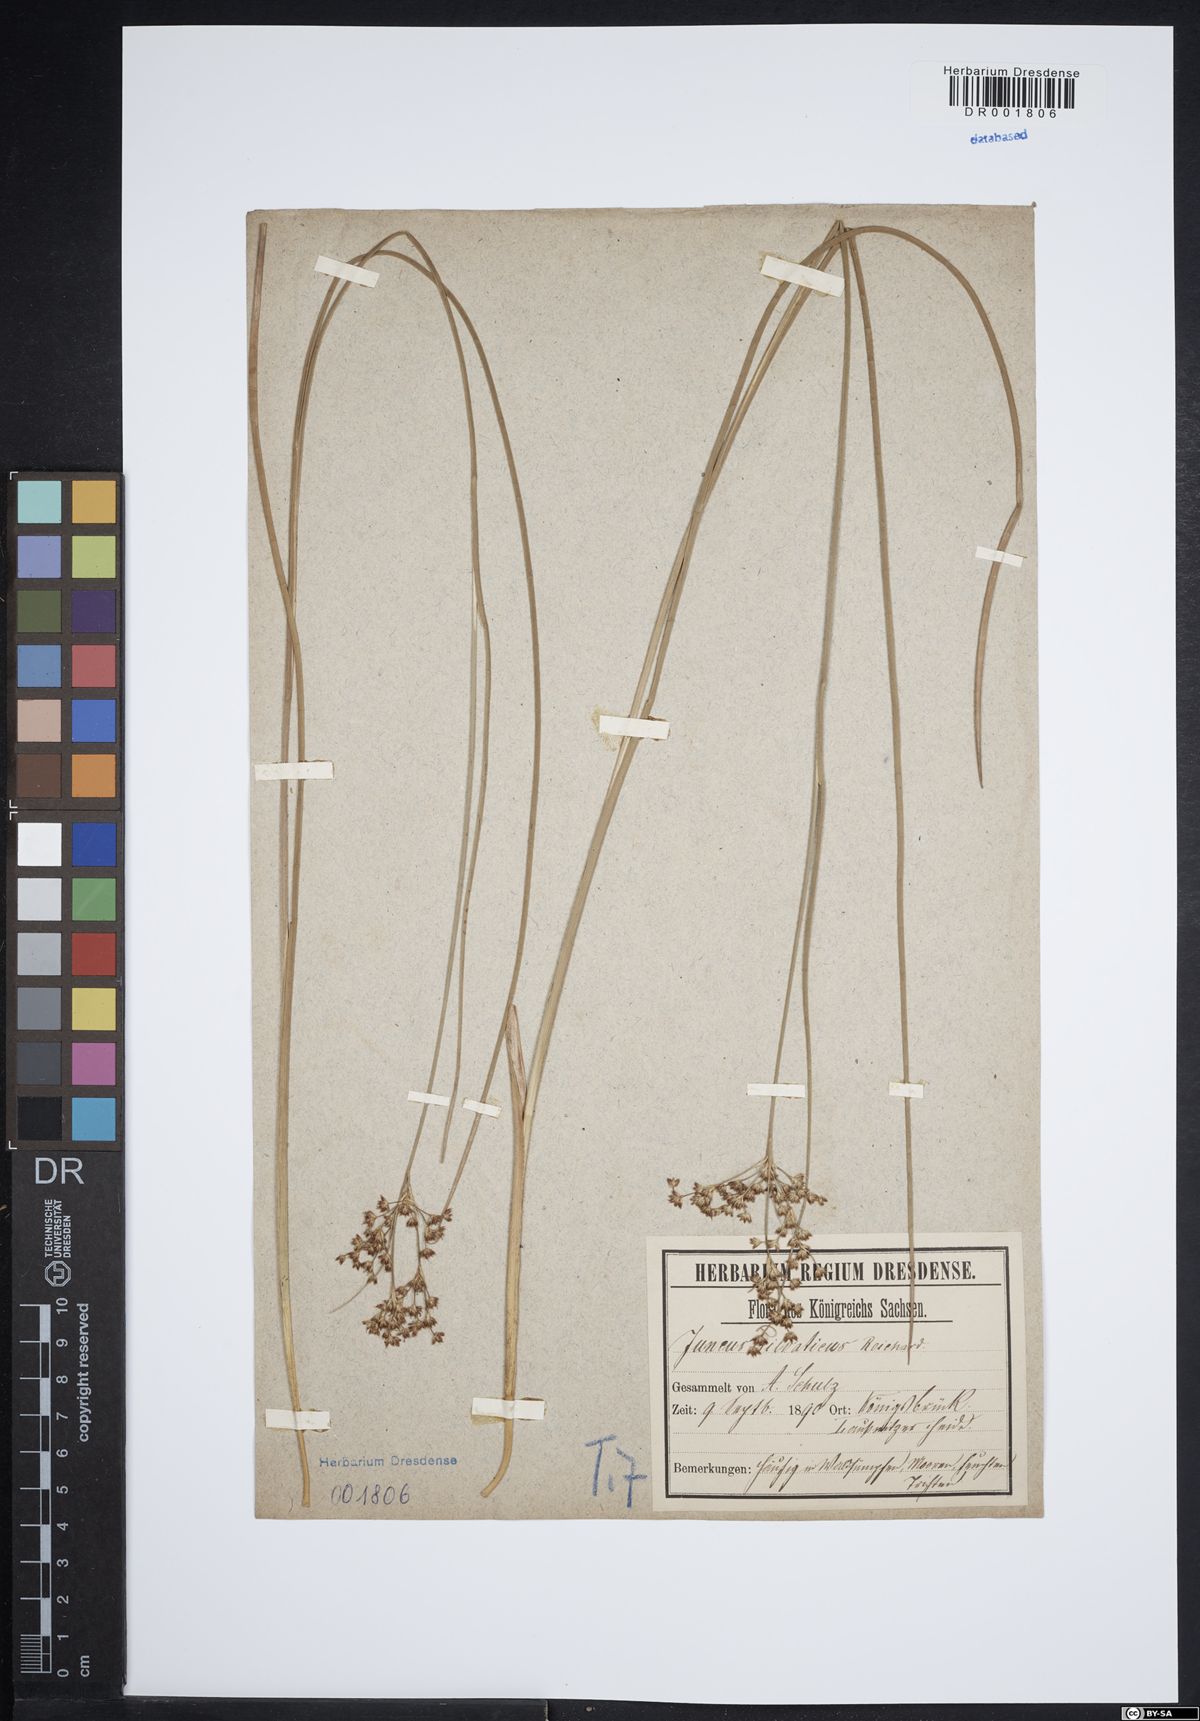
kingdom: Plantae
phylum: Tracheophyta
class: Liliopsida
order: Poales
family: Juncaceae
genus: Juncus
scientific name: Juncus acutiflorus
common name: Sharp-flowered rush
